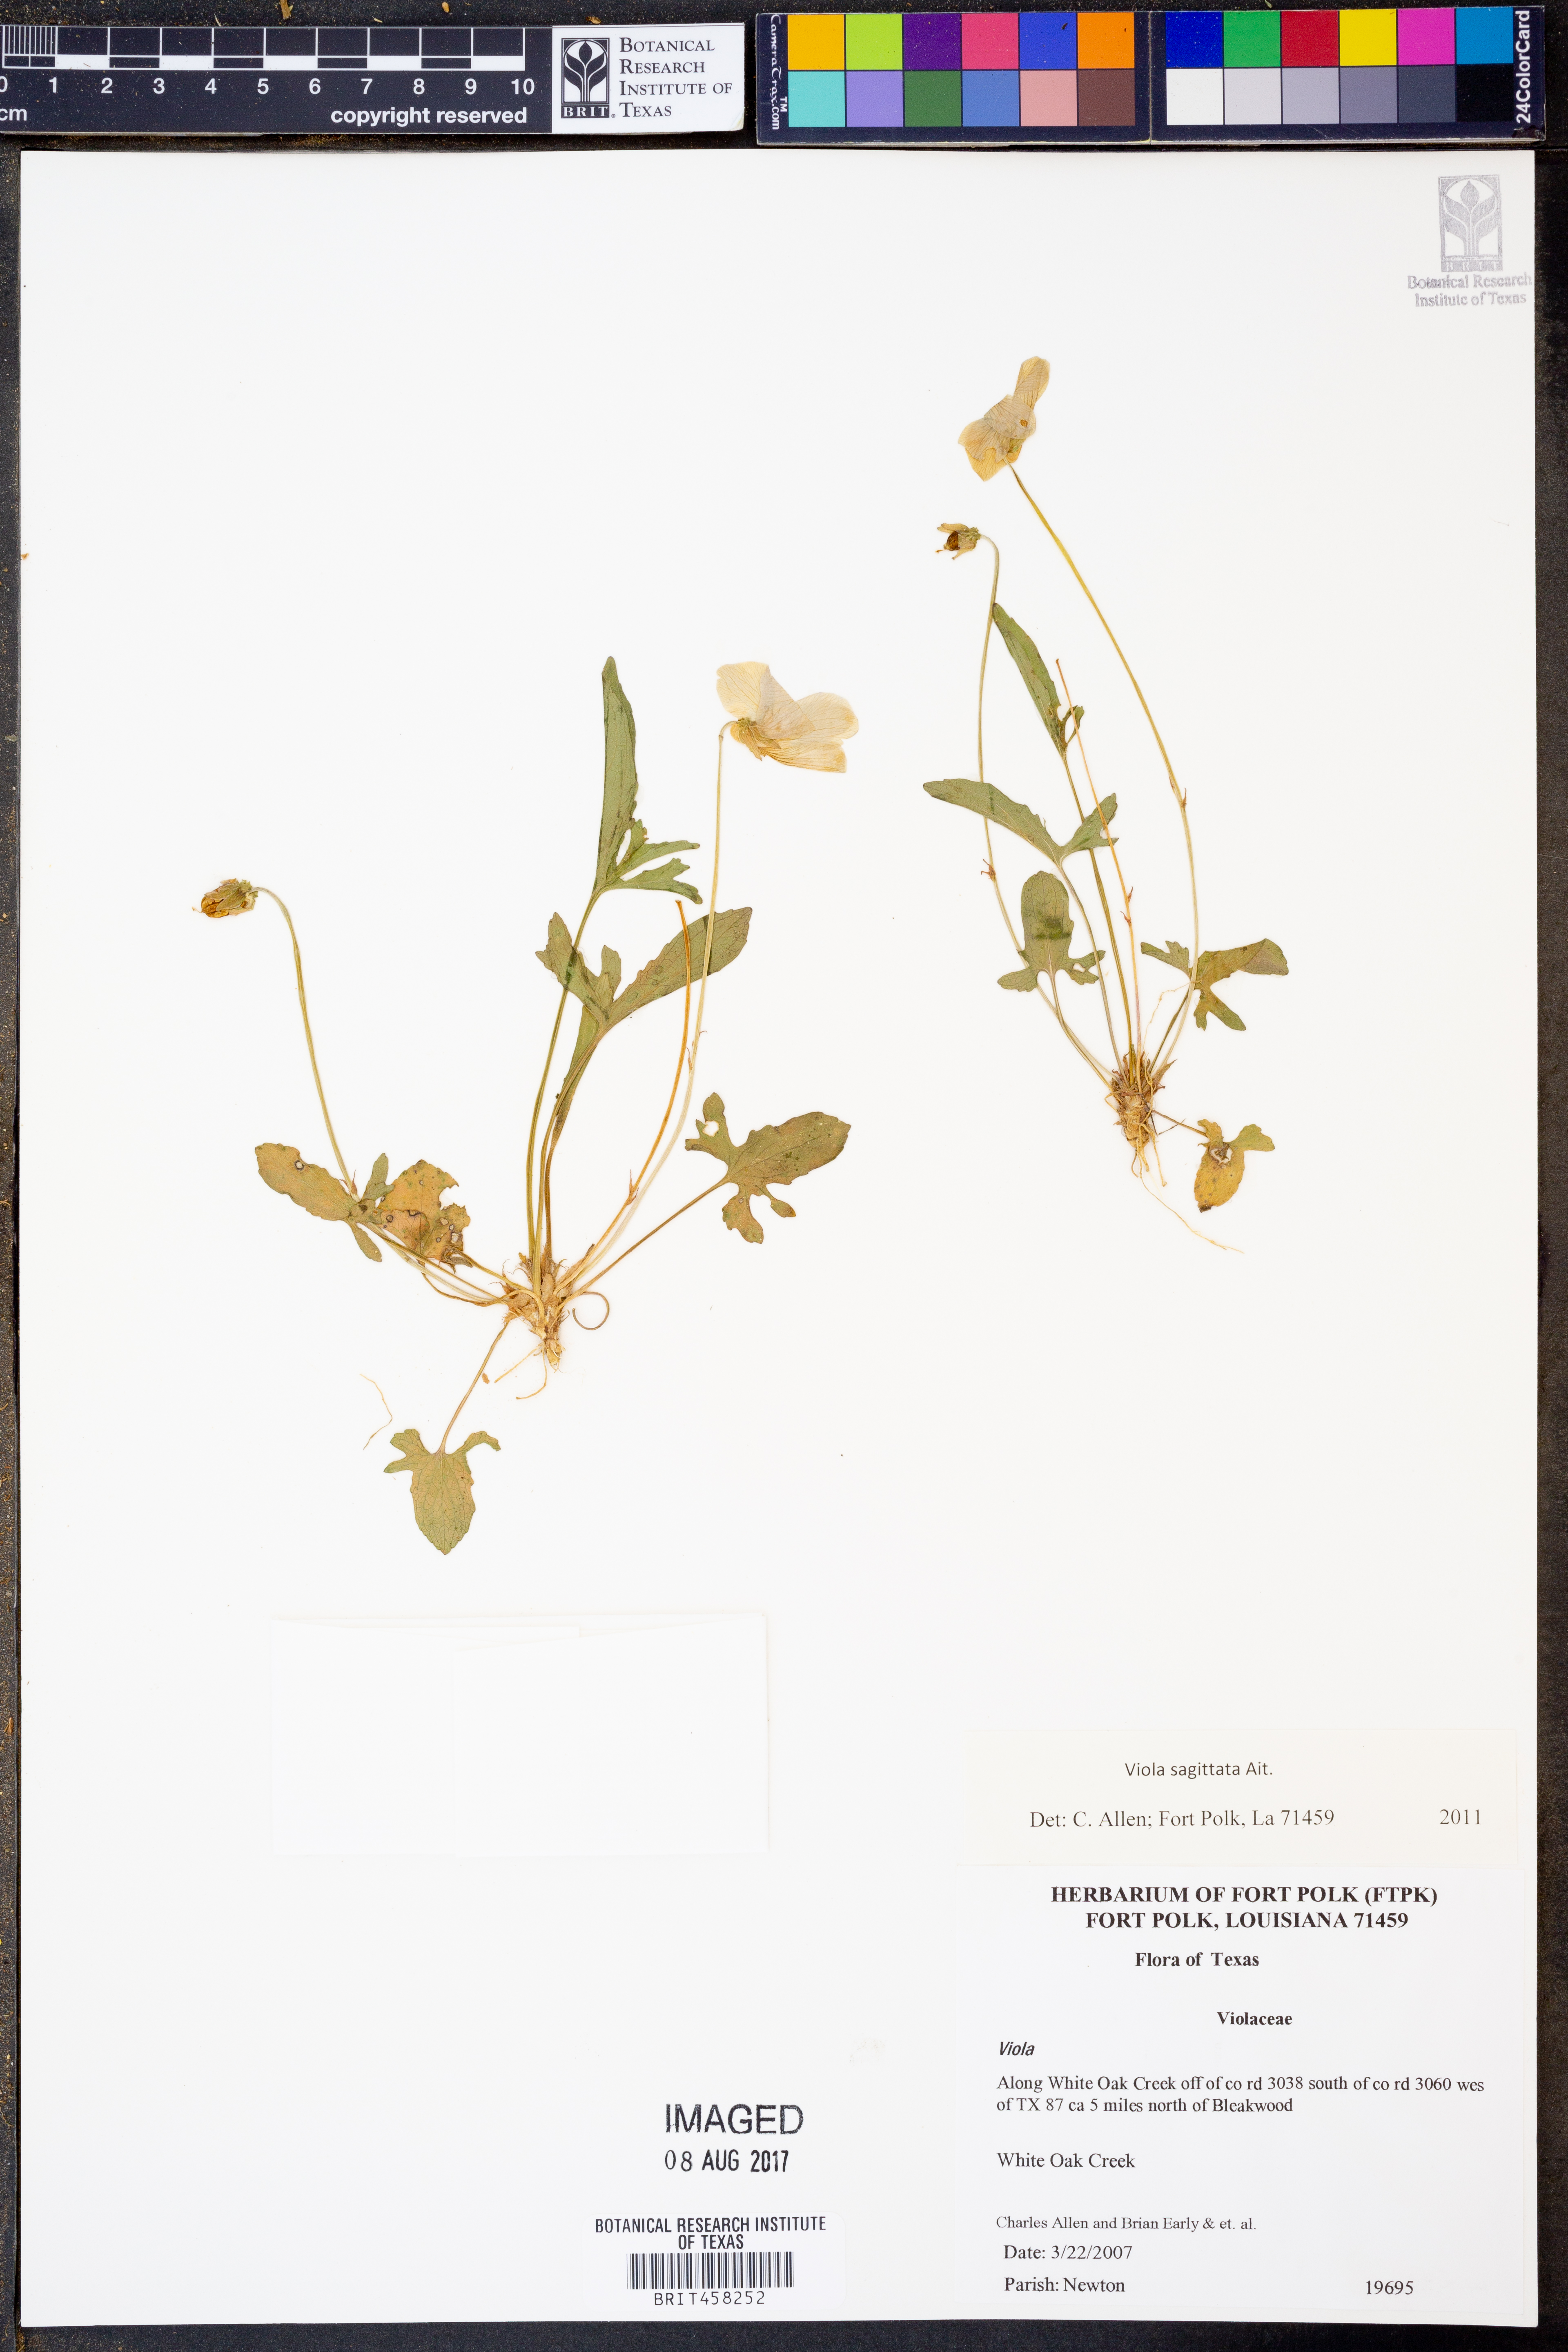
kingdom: Plantae
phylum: Tracheophyta
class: Magnoliopsida
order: Malpighiales
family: Violaceae
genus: Viola
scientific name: Viola sagittata
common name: Arrowhead violet
